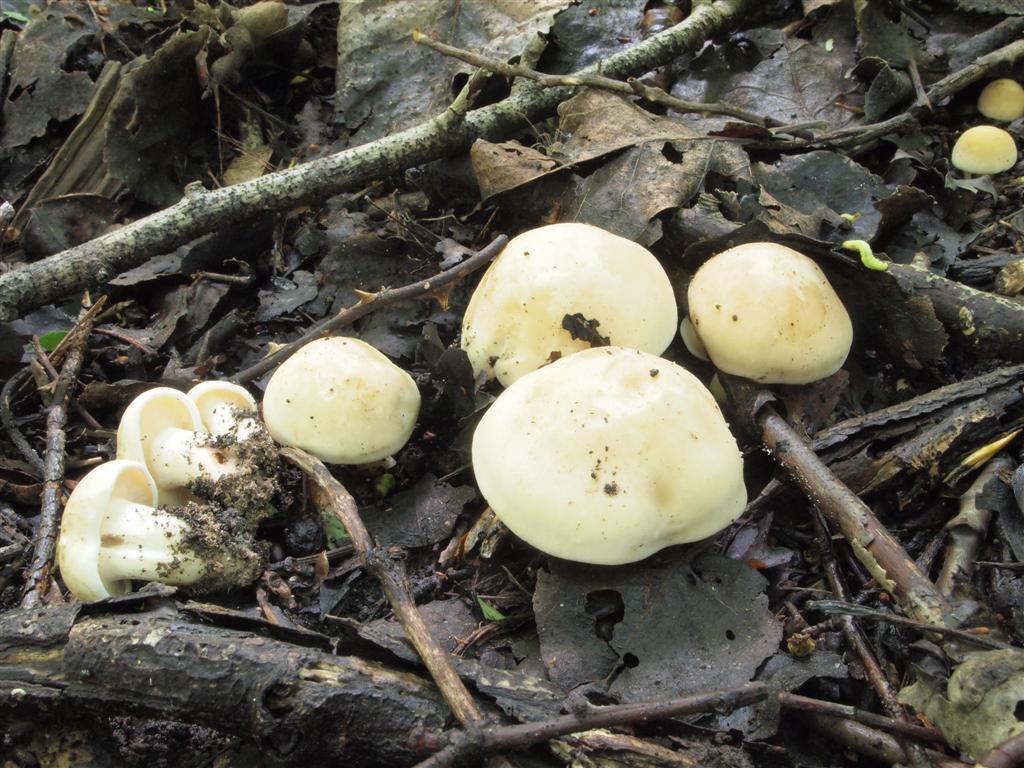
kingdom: Fungi
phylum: Basidiomycota
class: Agaricomycetes
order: Agaricales
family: Lyophyllaceae
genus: Calocybe
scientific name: Calocybe gambosa
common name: vårmusseron
